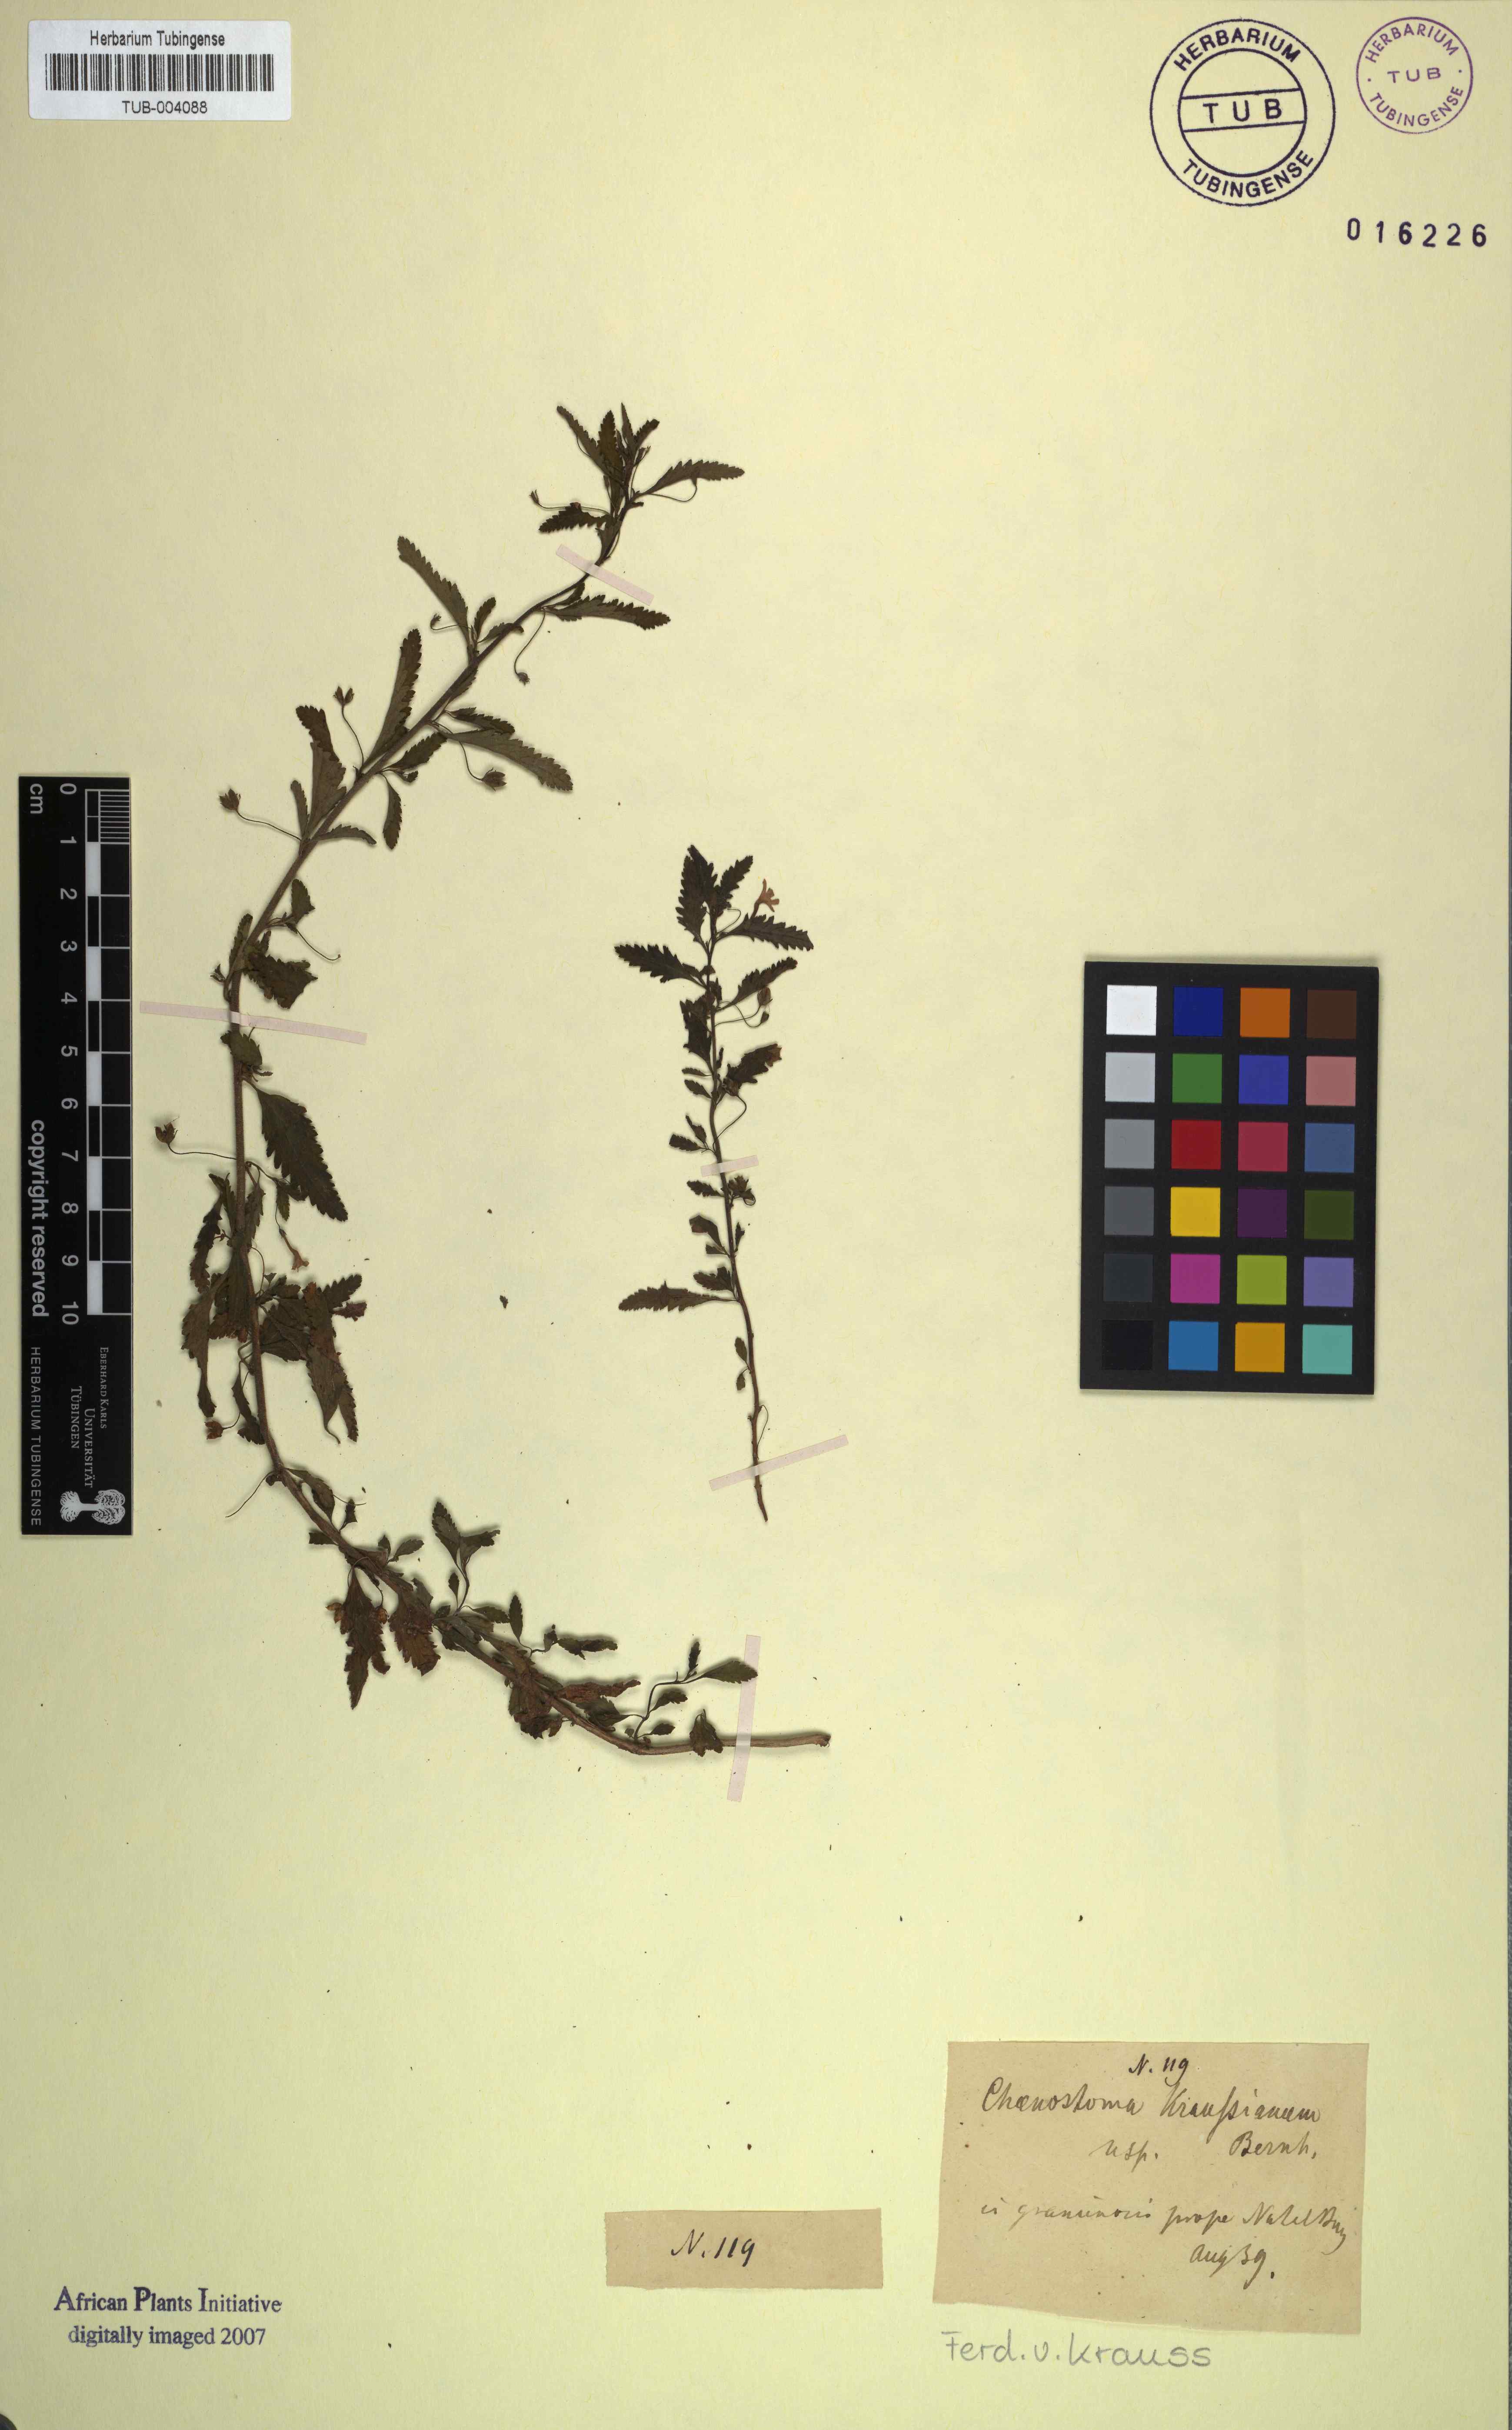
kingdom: Plantae
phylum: Tracheophyta
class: Magnoliopsida
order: Lamiales
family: Scrophulariaceae
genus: Jamesbrittenia
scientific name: Jamesbrittenia kraussiana
